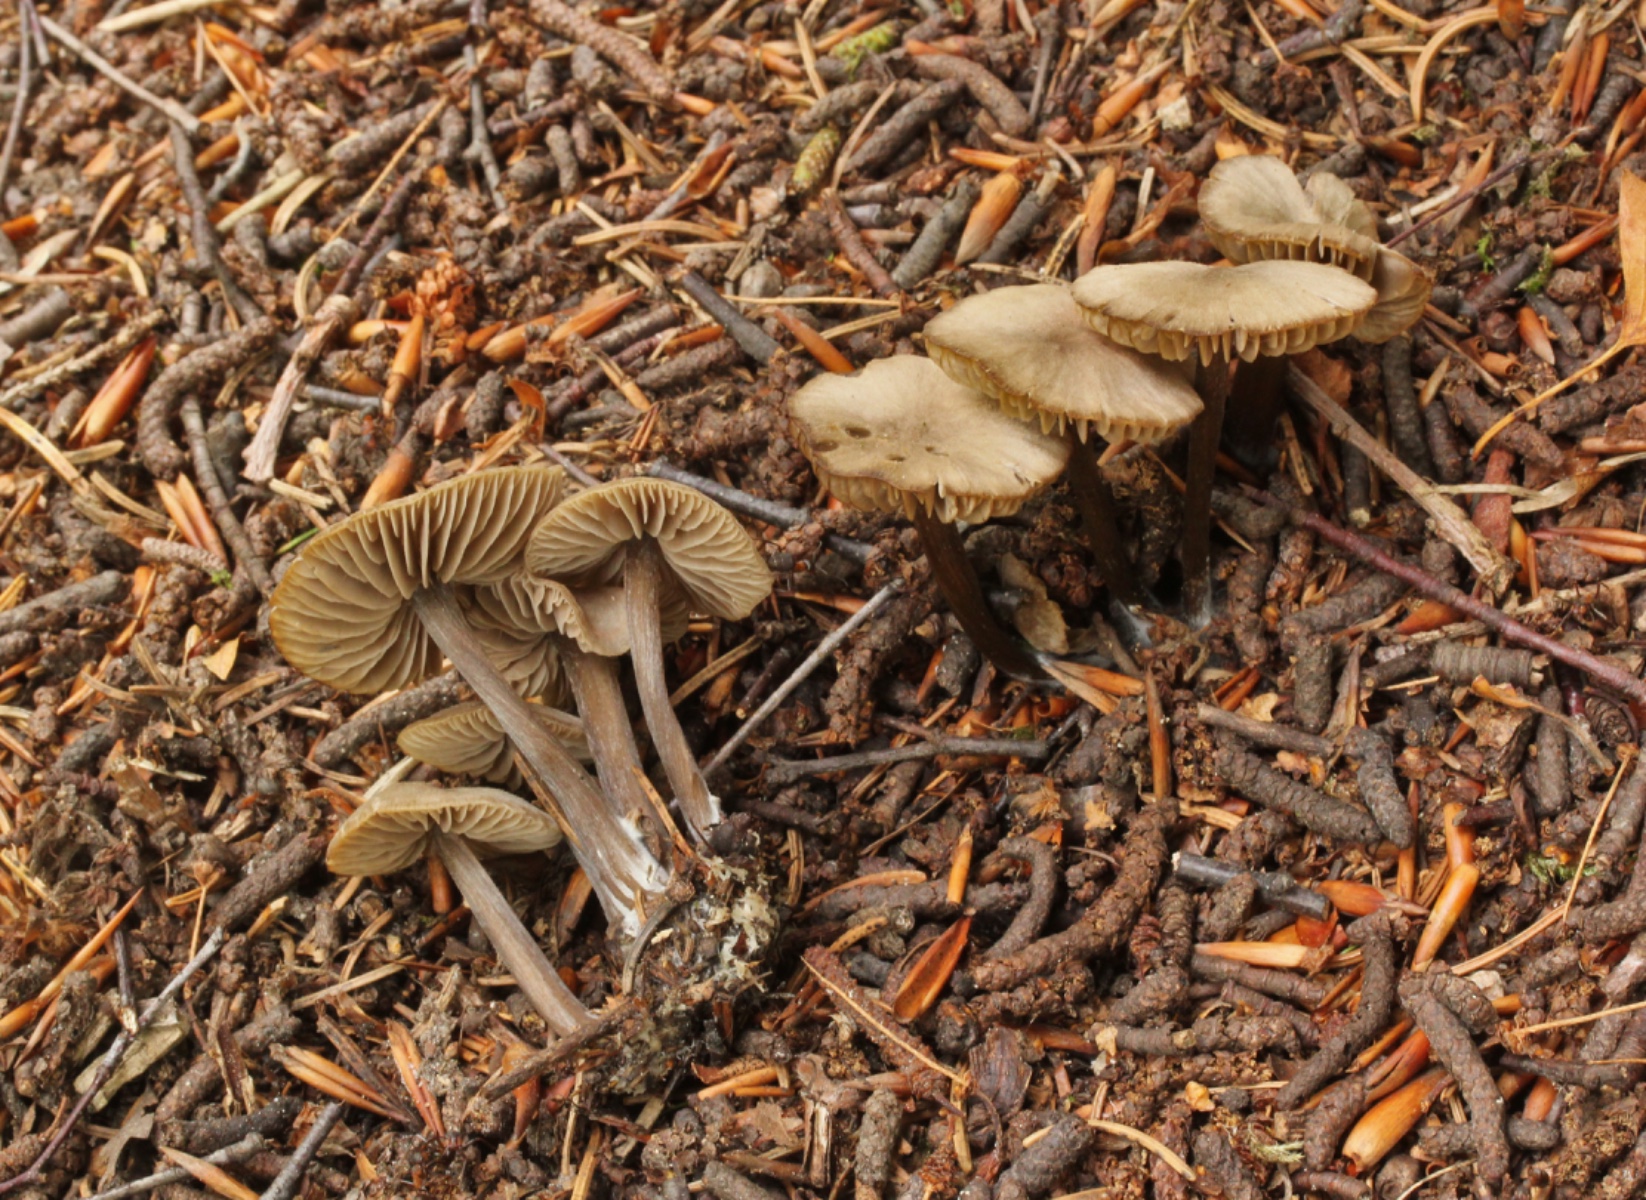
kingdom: Fungi
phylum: Basidiomycota
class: Agaricomycetes
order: Agaricales
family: Entolomataceae
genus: Entoloma
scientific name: Entoloma
